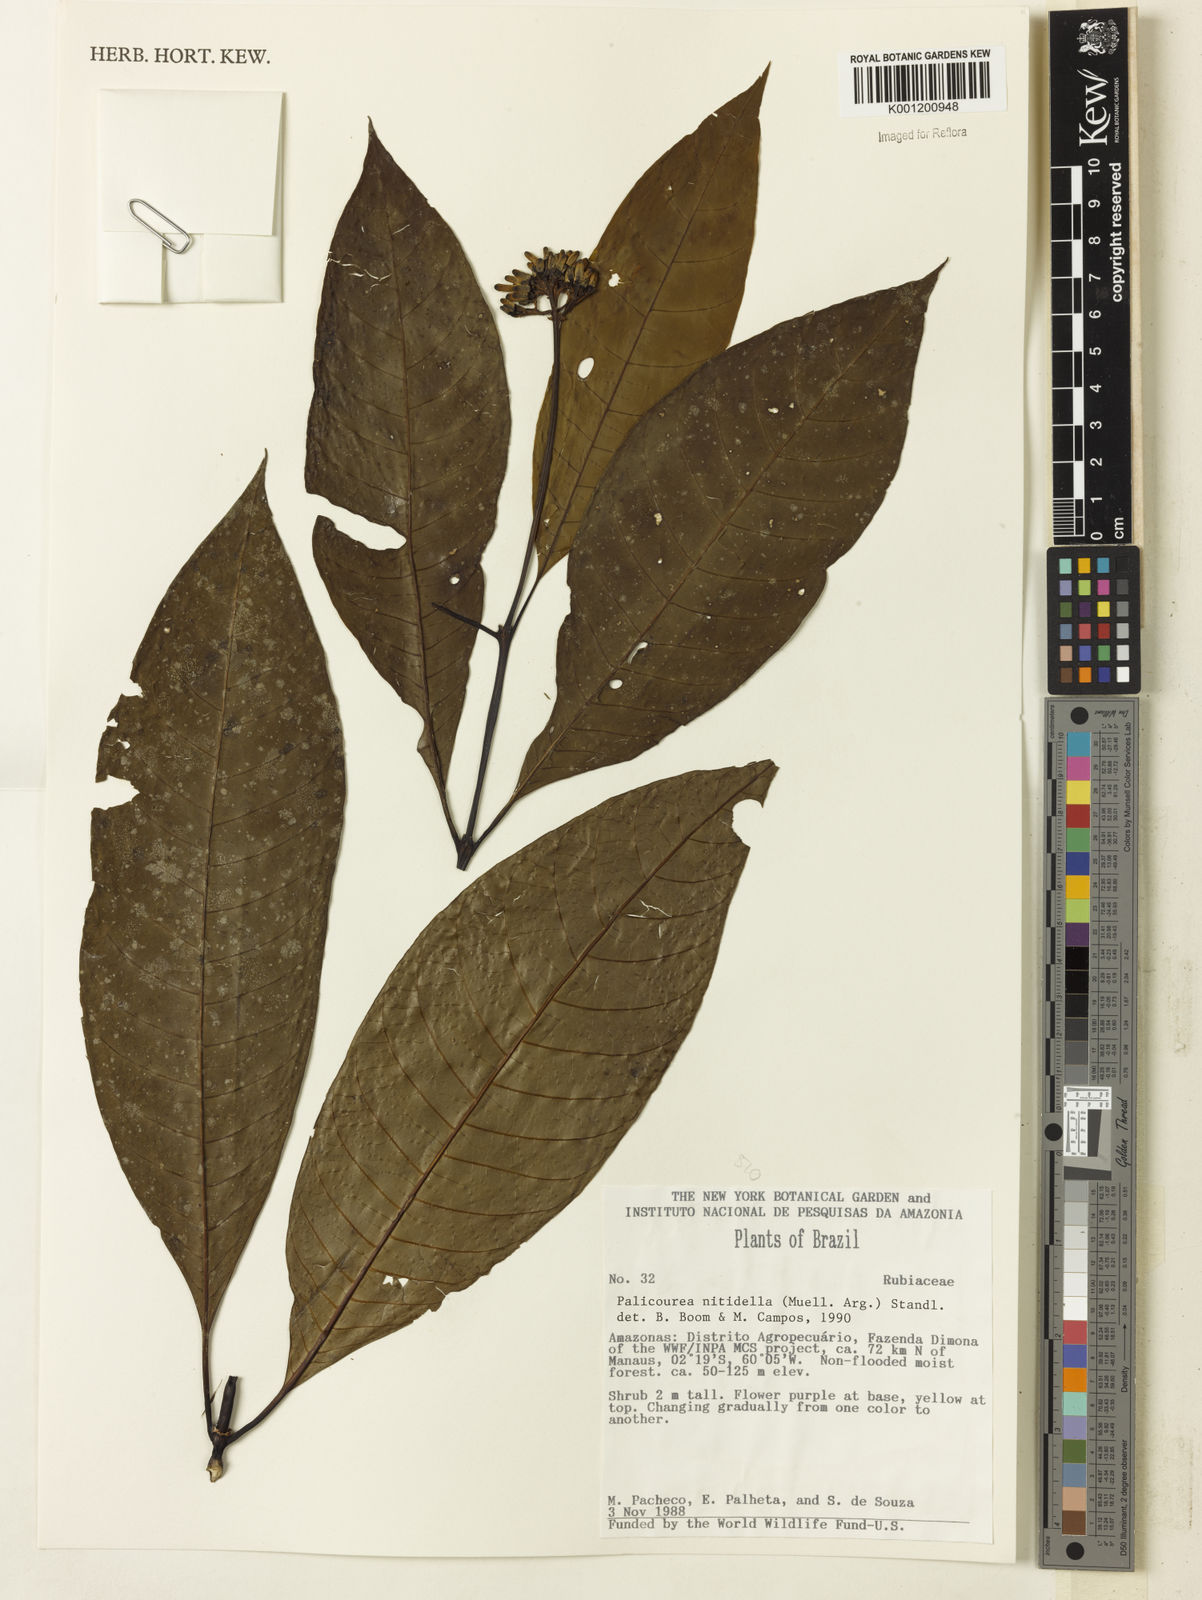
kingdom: Plantae
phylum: Tracheophyta
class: Magnoliopsida
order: Gentianales
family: Rubiaceae
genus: Palicourea
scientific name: Palicourea
